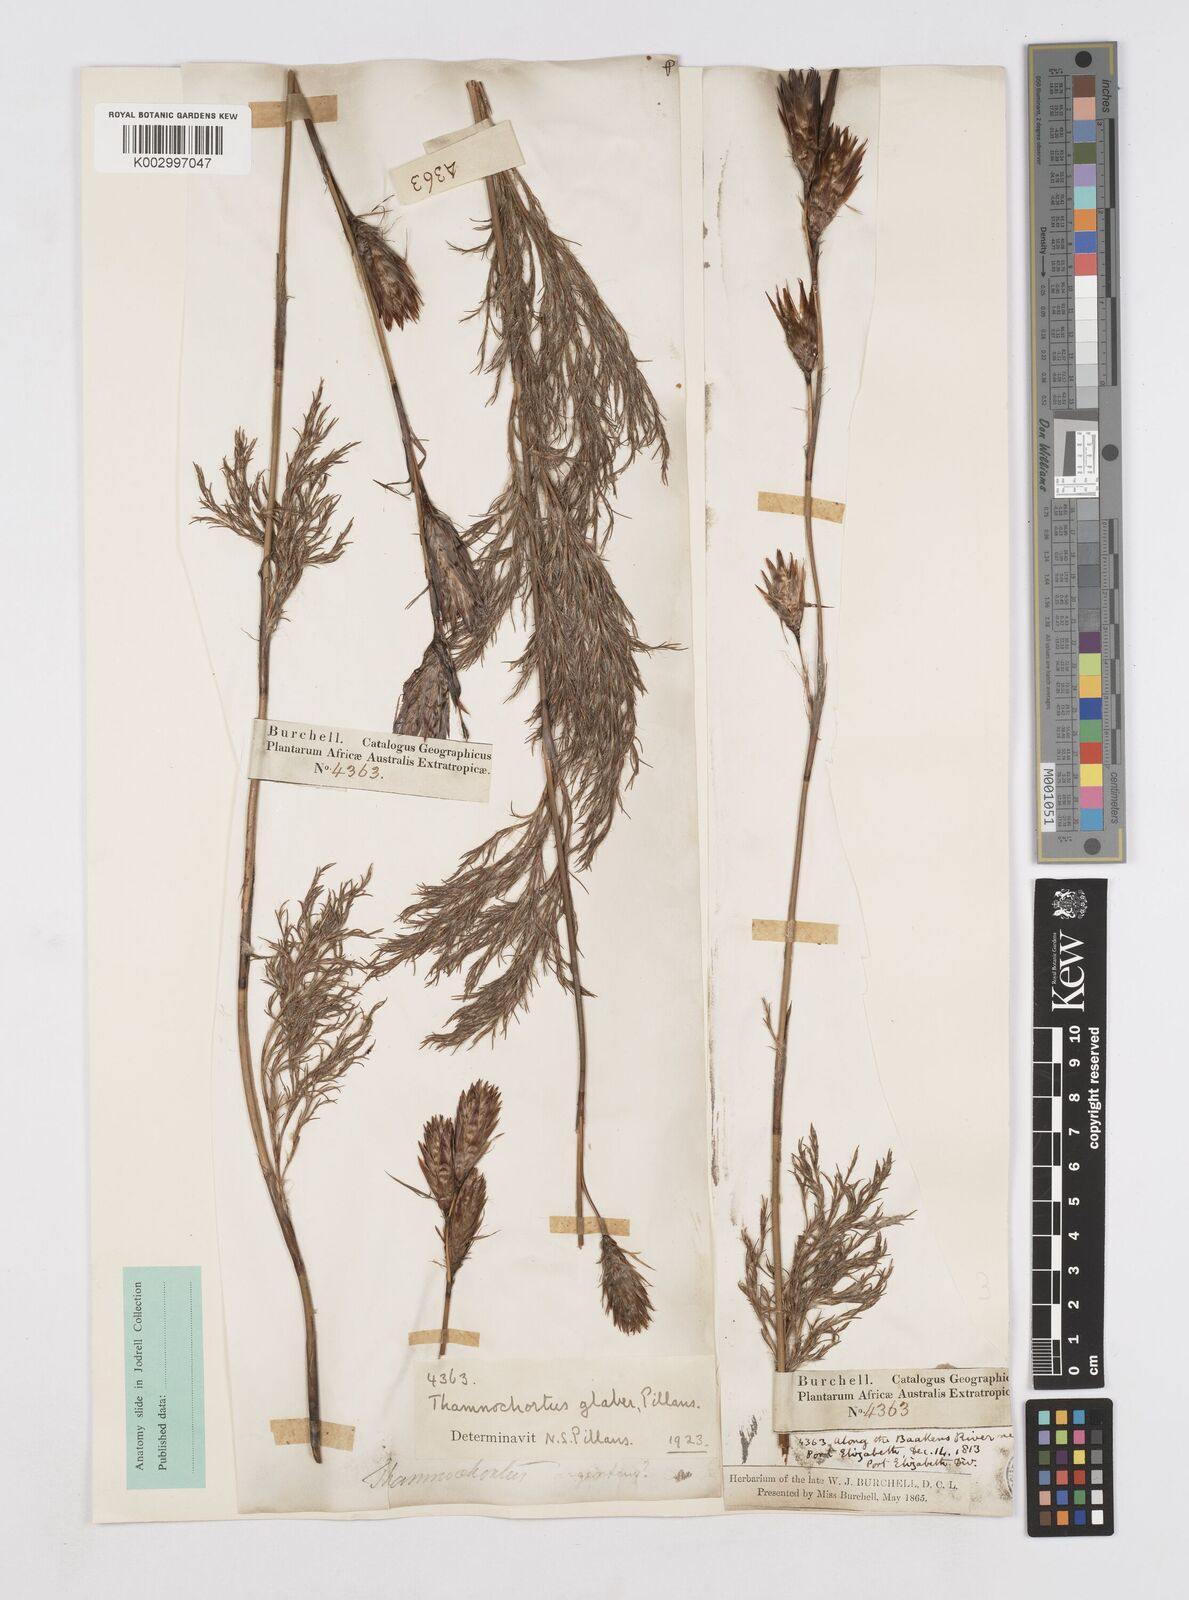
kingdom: Plantae
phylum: Tracheophyta
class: Liliopsida
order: Poales
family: Restionaceae
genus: Thamnochortus
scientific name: Thamnochortus glaber
